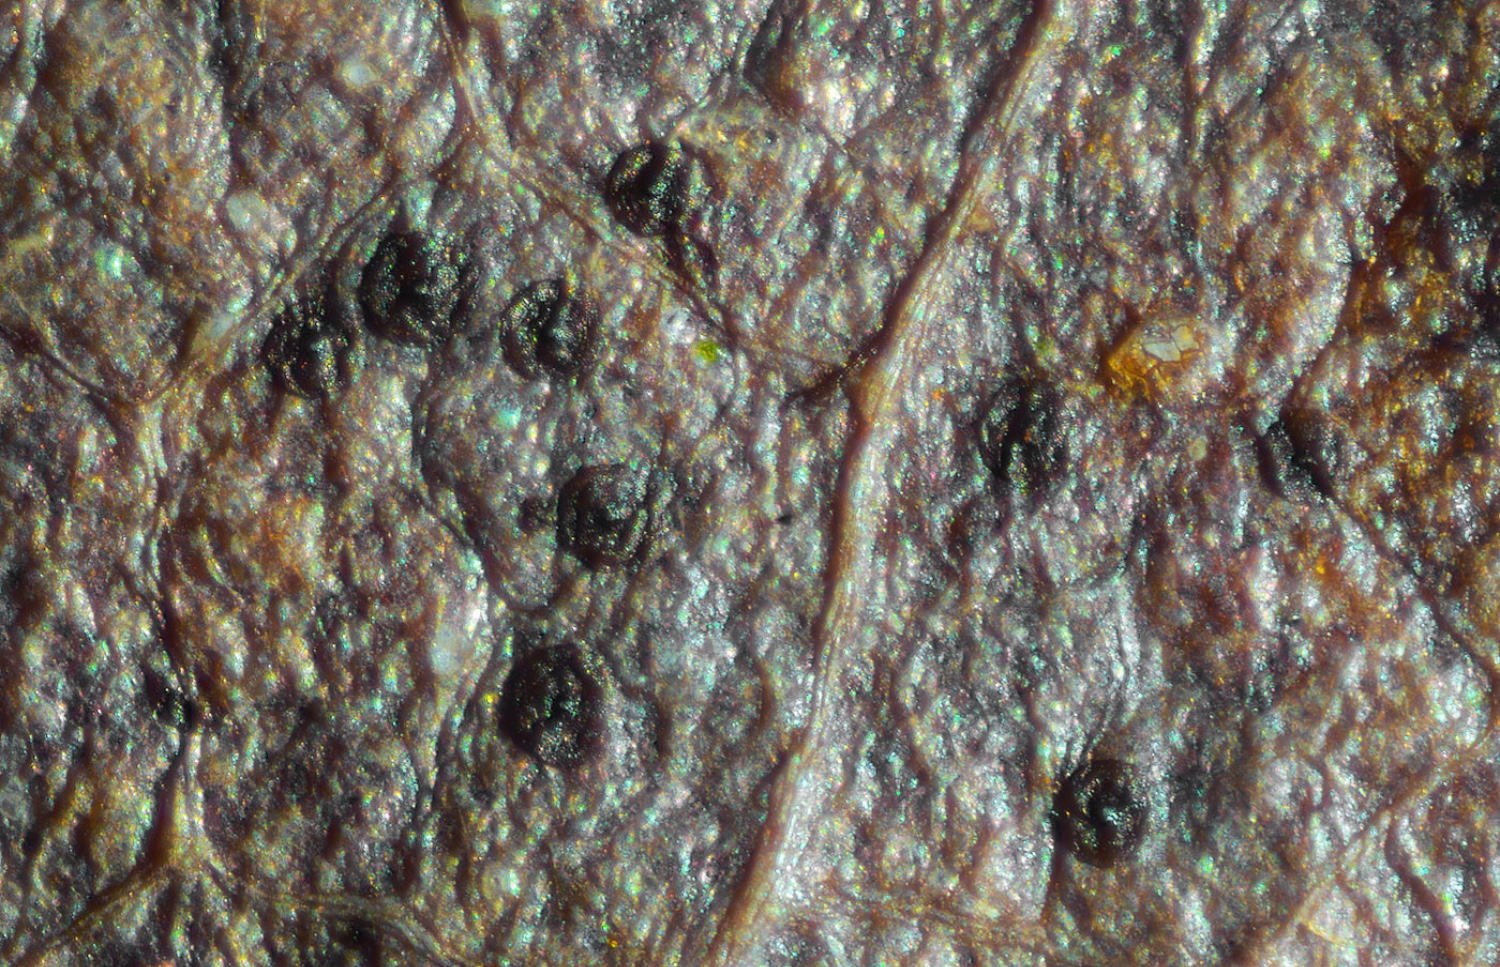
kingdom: Fungi
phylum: Ascomycota
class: Dothideomycetes
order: Microthyriales
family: Microthyriaceae
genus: Microthyrium
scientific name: Microthyrium microscopicum
